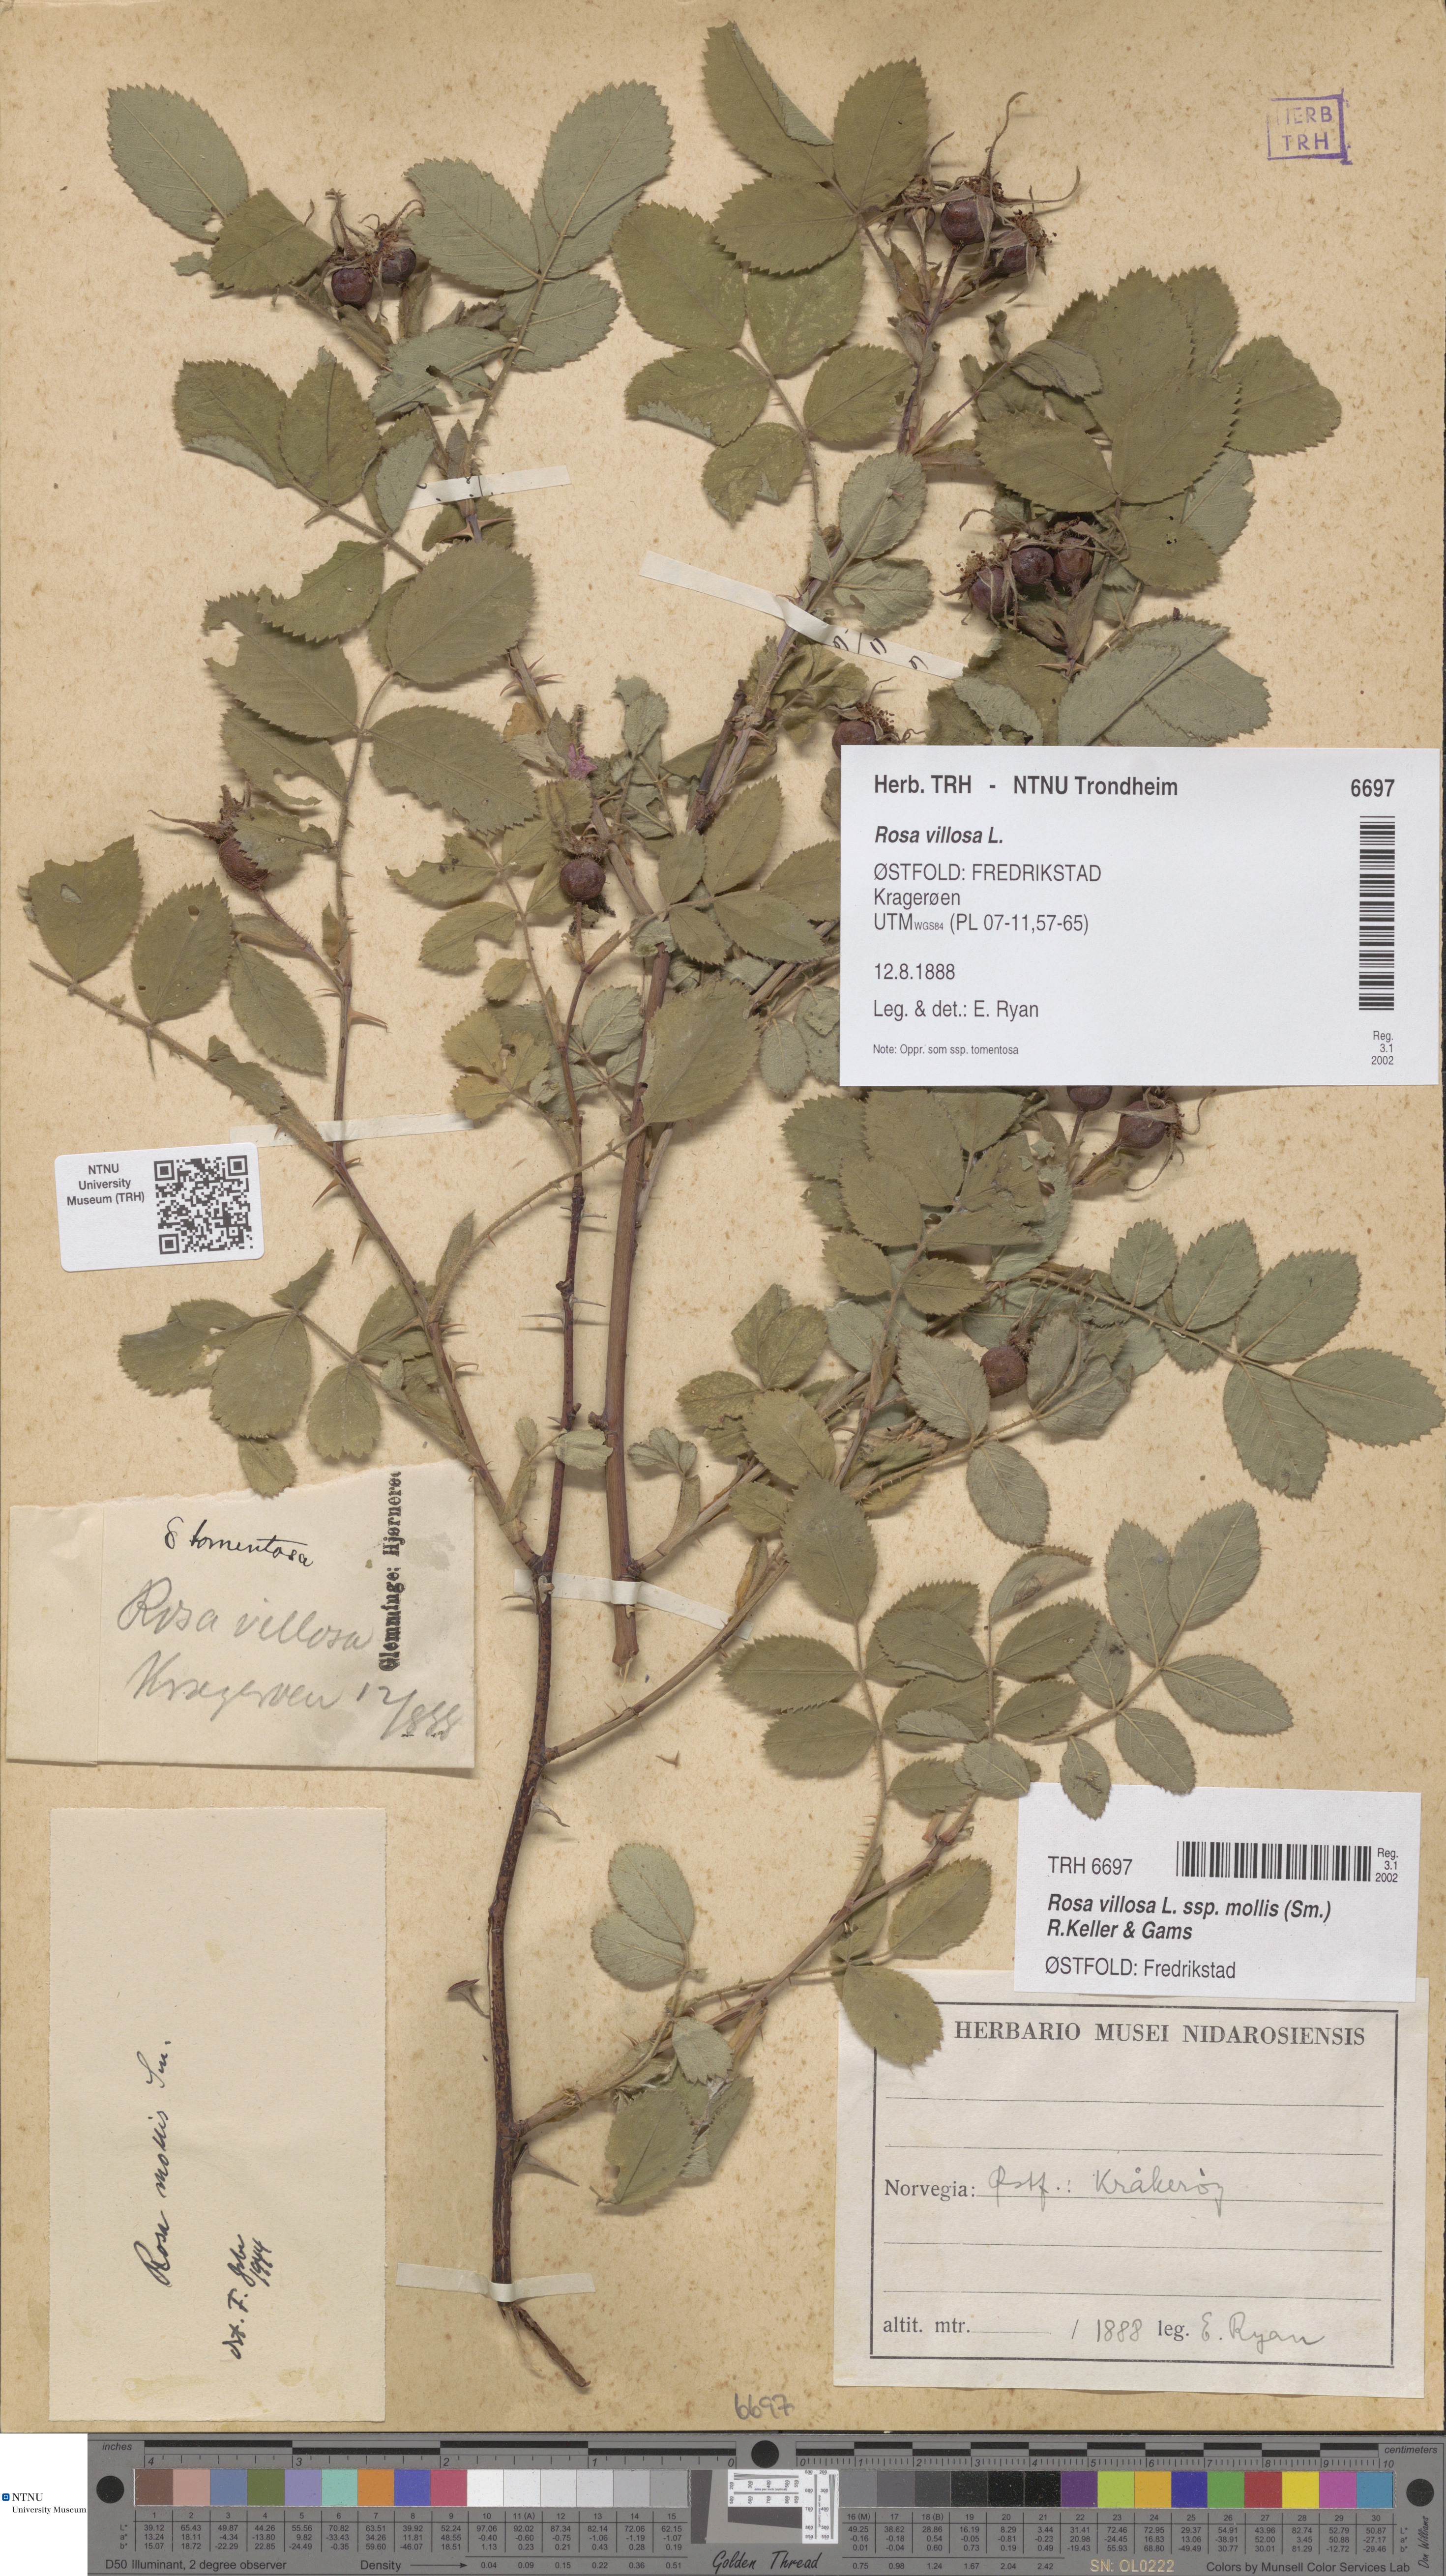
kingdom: Plantae
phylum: Tracheophyta
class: Magnoliopsida
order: Rosales
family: Rosaceae
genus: Rosa
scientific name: Rosa mollis
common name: Rose
